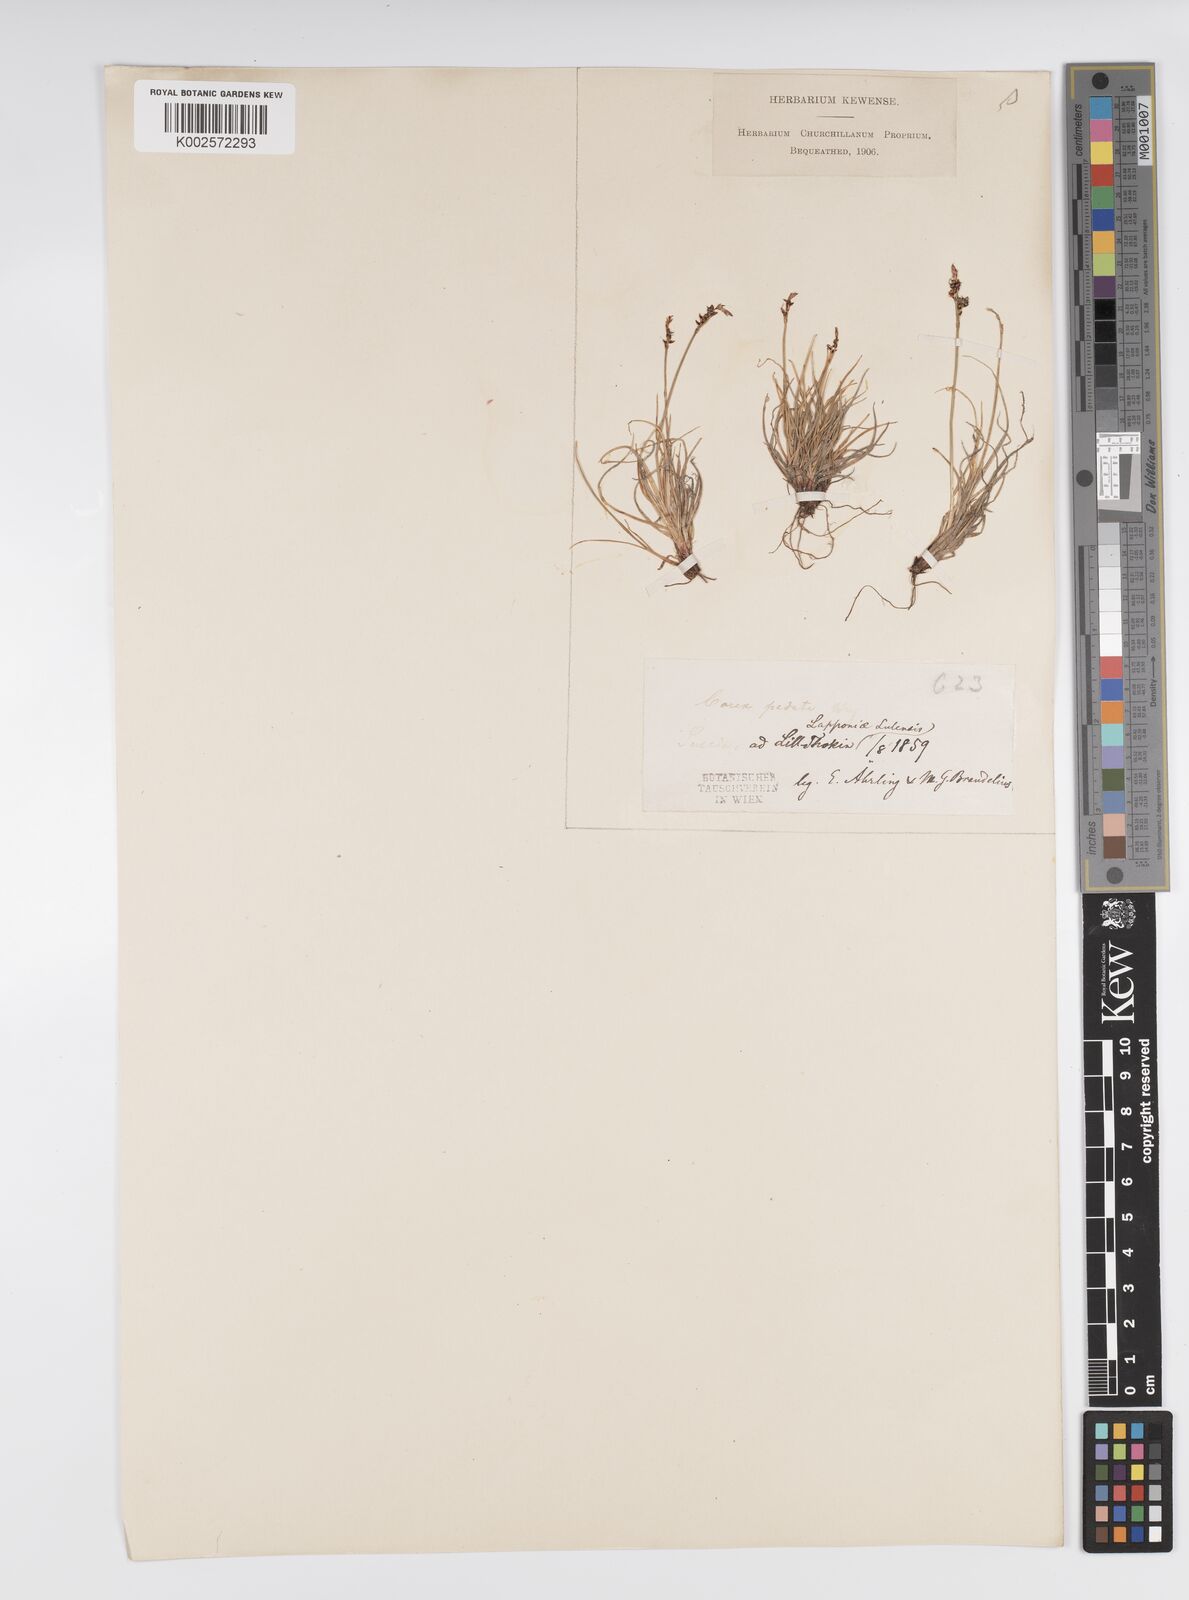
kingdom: Plantae
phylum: Tracheophyta
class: Liliopsida
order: Poales
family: Cyperaceae
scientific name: Cyperaceae
